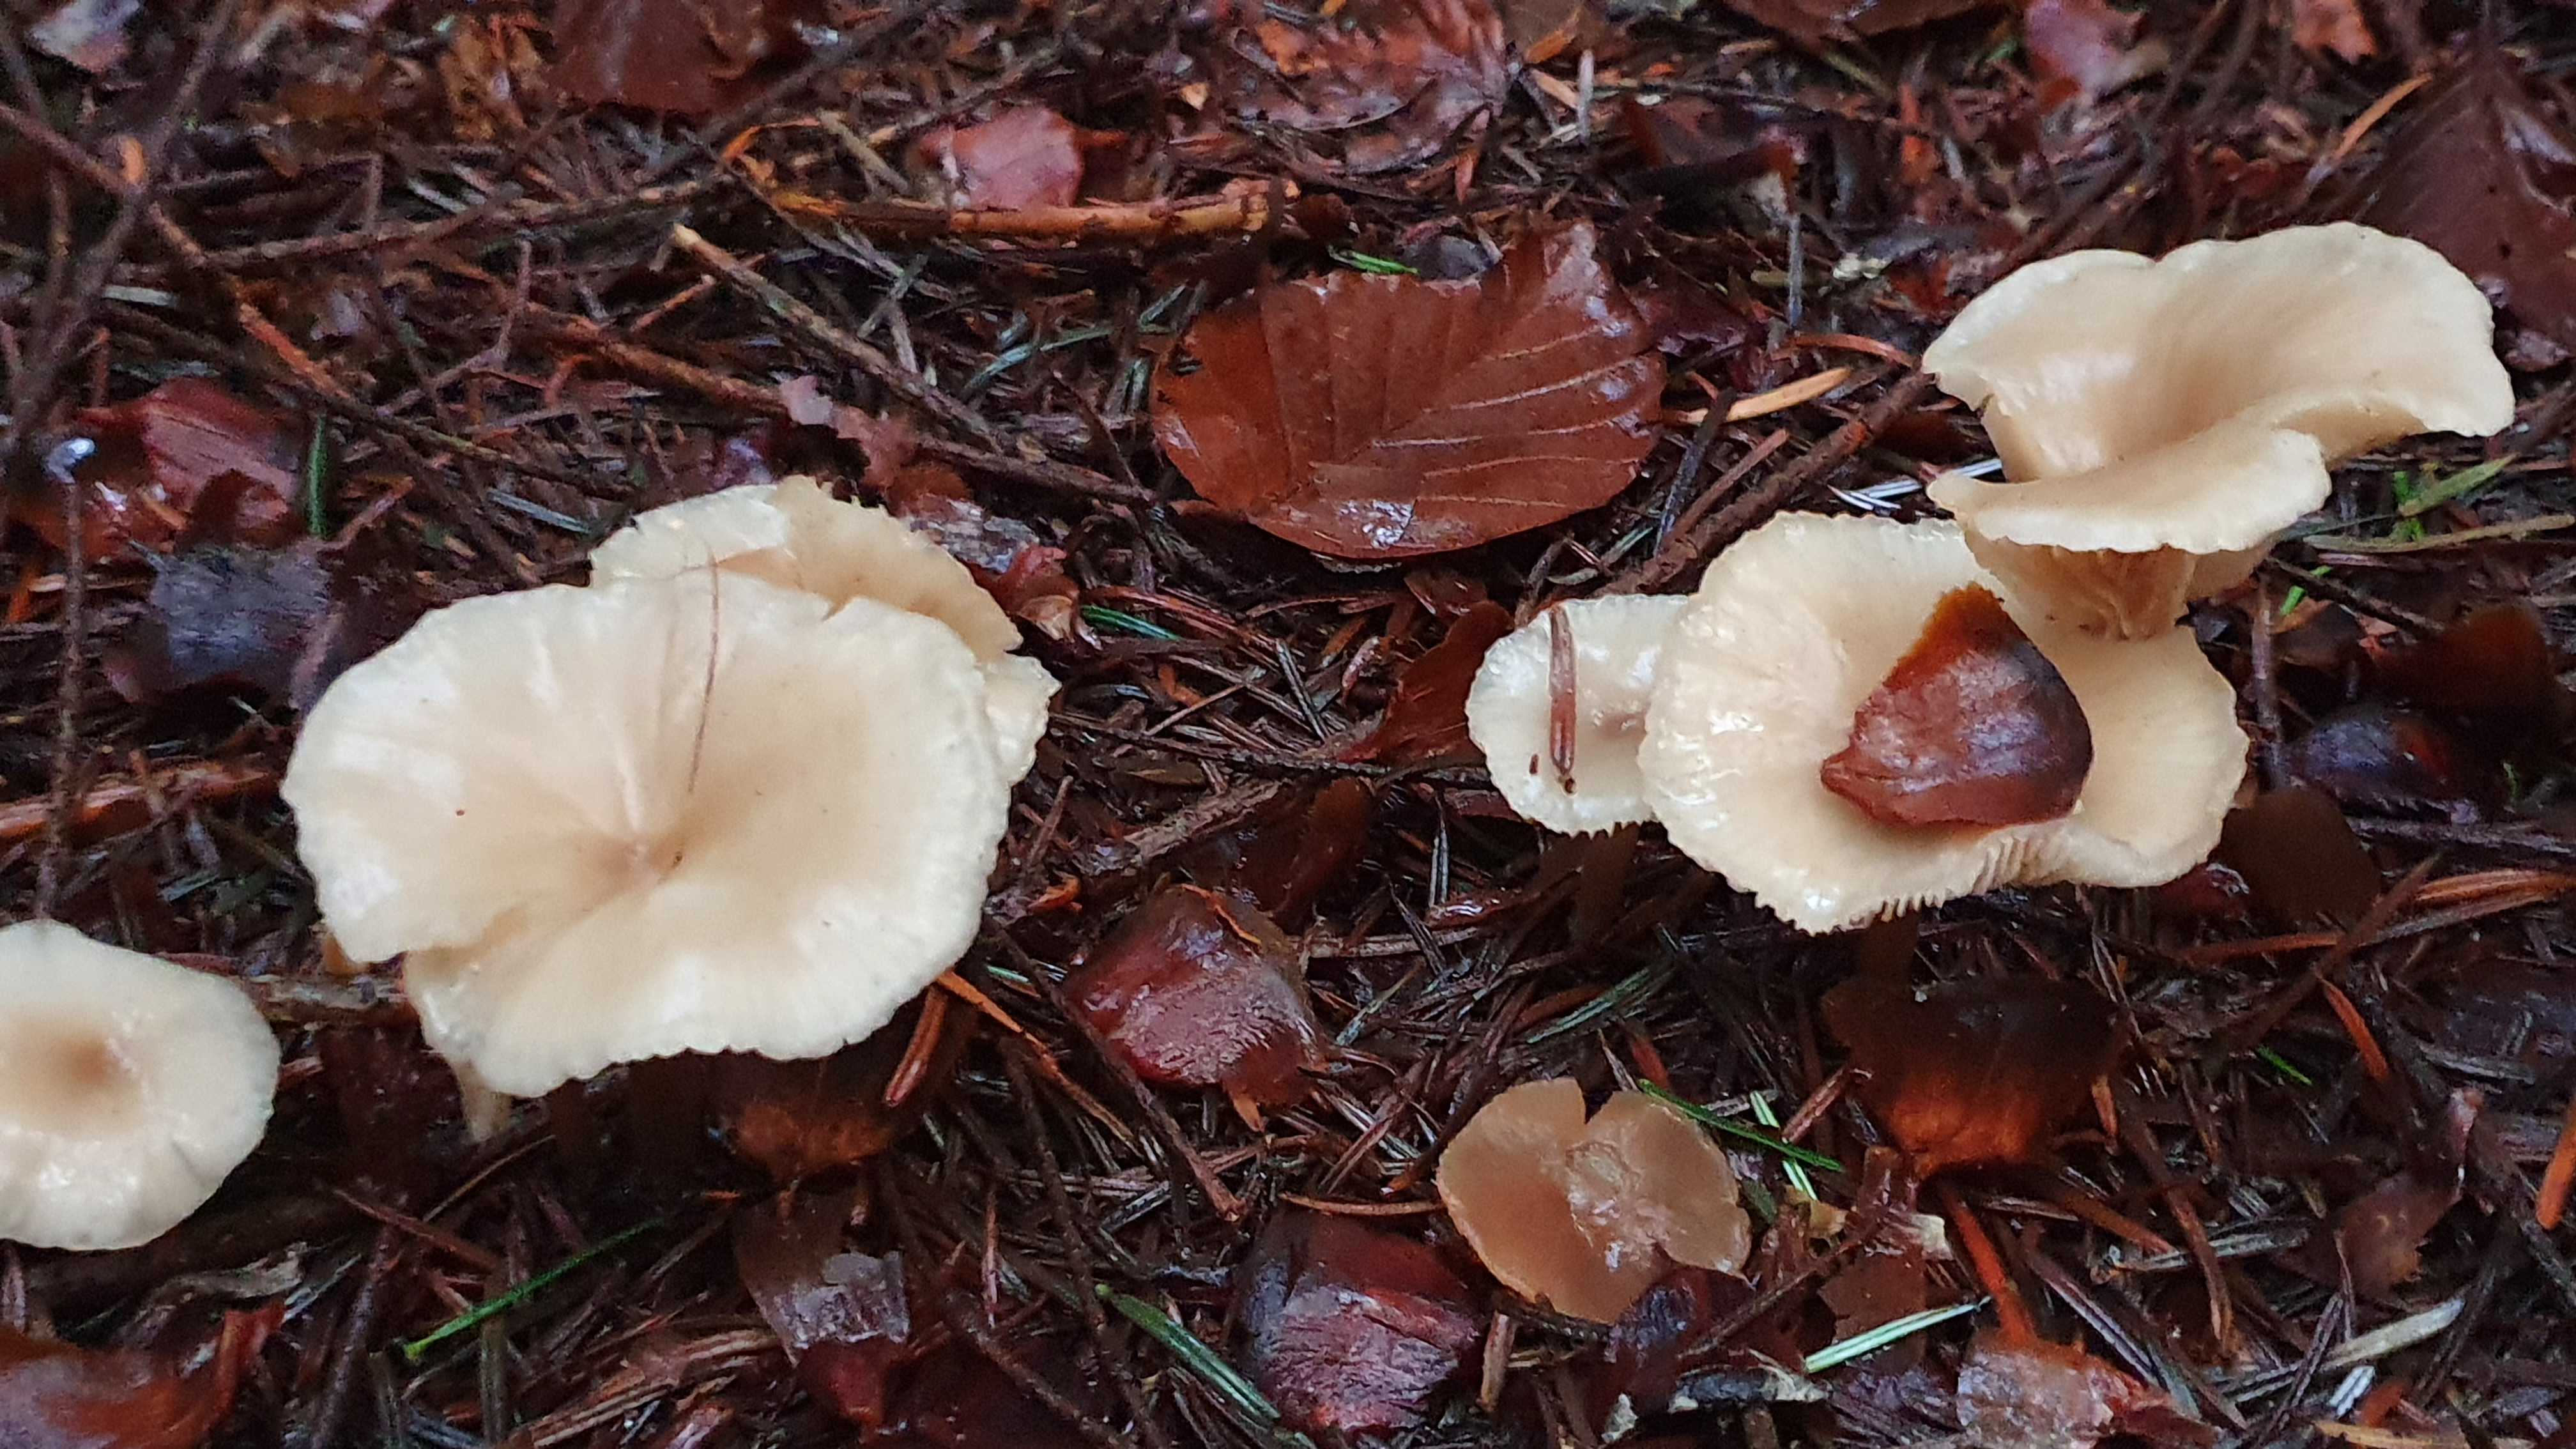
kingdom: Fungi
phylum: Basidiomycota
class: Agaricomycetes
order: Agaricales
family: Tricholomataceae
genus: Infundibulicybe
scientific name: Infundibulicybe gibba
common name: almindelig tragthat
